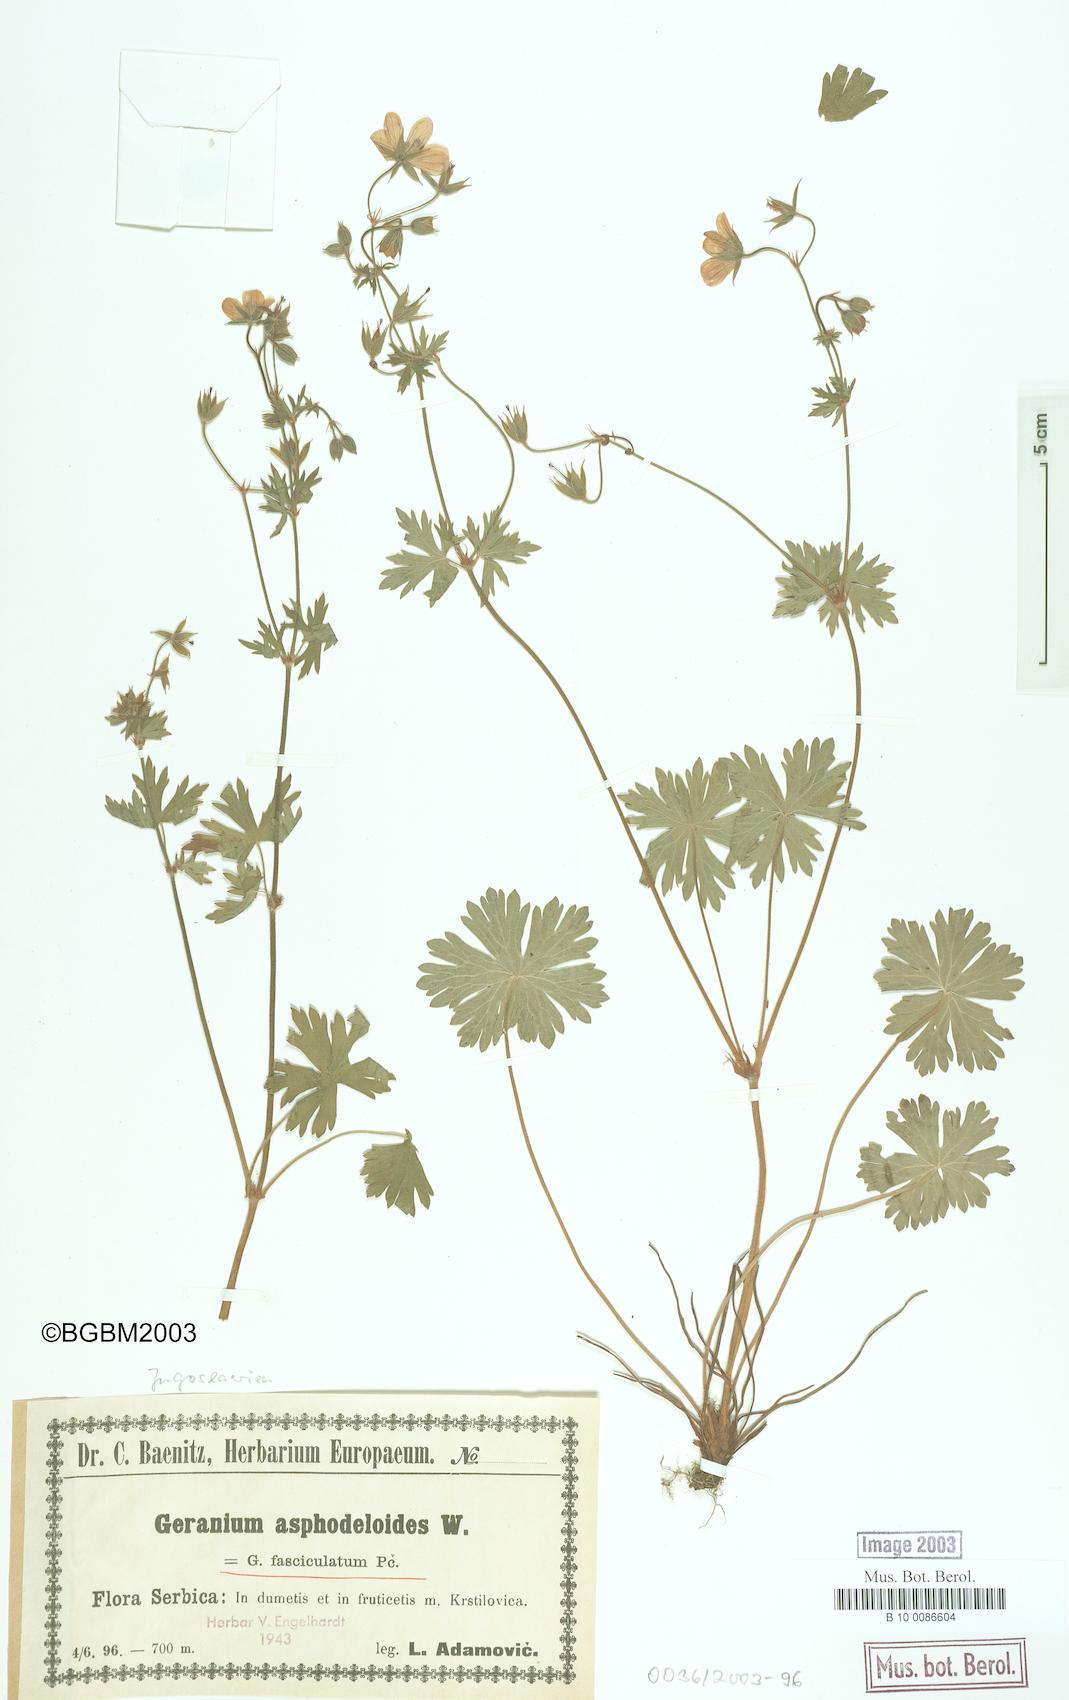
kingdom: Plantae
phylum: Tracheophyta
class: Magnoliopsida
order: Geraniales
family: Geraniaceae
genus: Geranium
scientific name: Geranium asphodeloides
